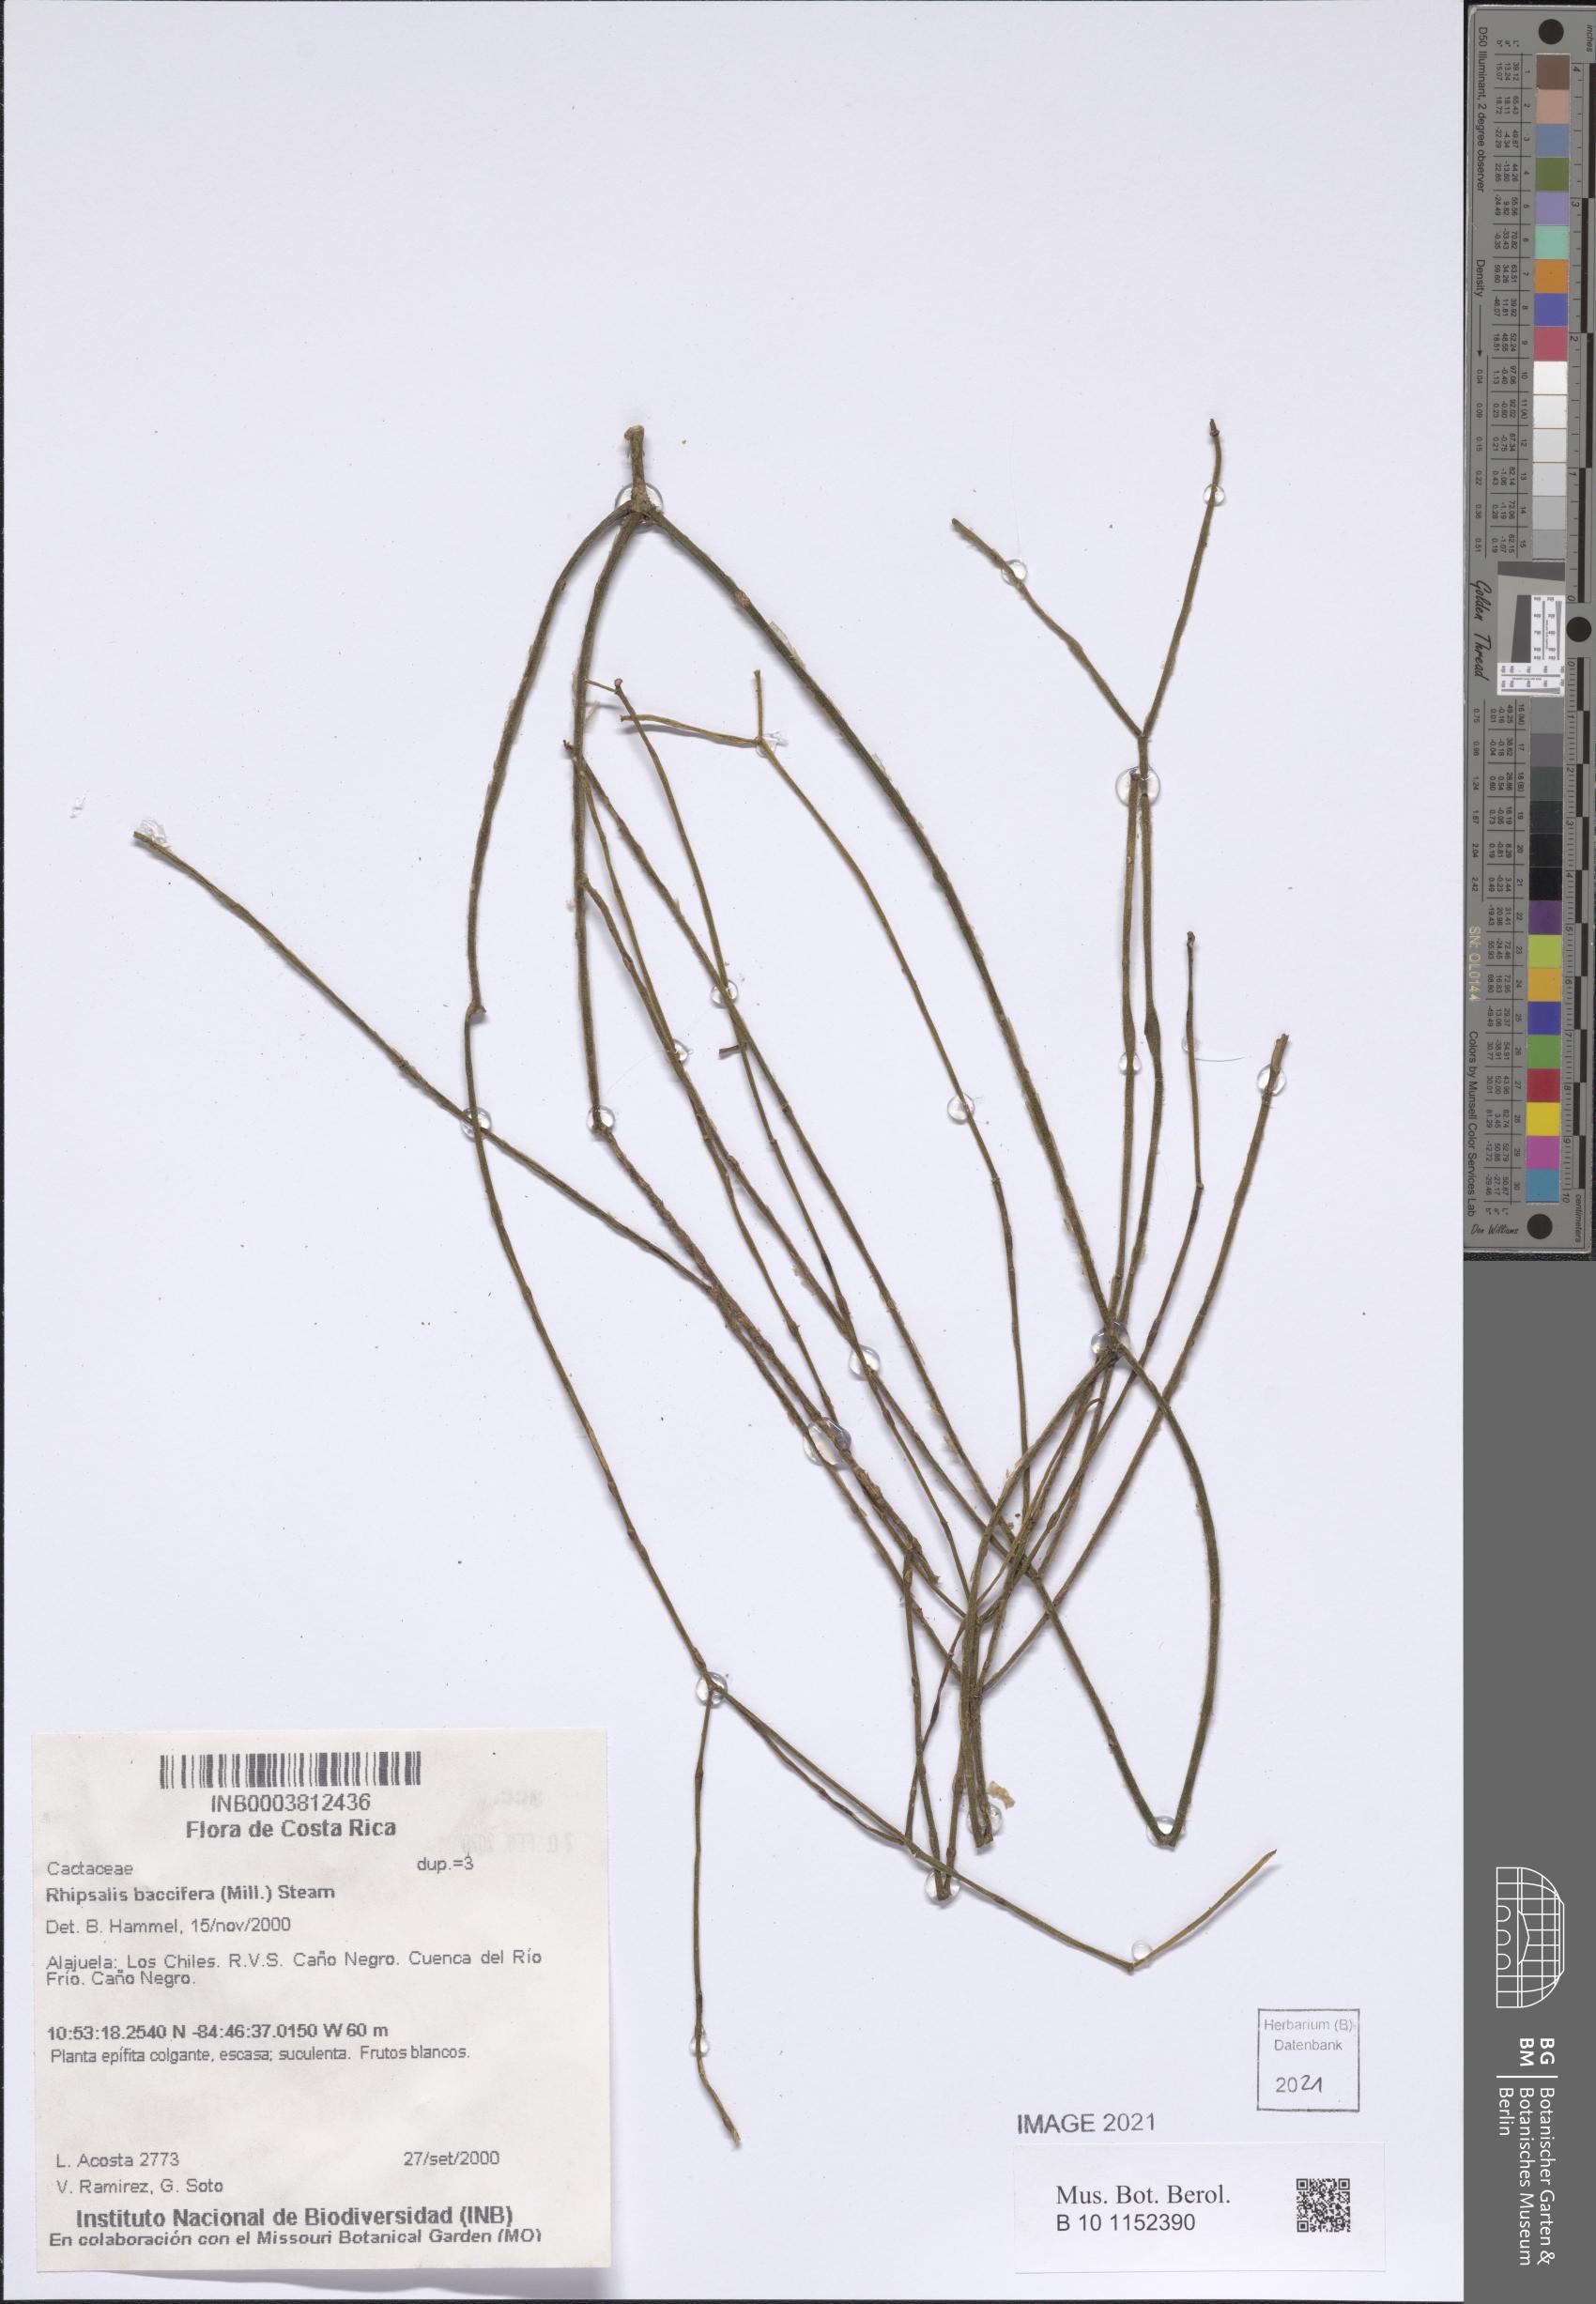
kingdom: Plantae
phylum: Tracheophyta
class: Magnoliopsida
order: Caryophyllales
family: Cactaceae
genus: Rhipsalis
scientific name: Rhipsalis baccifera
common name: Mistletoe cactus
